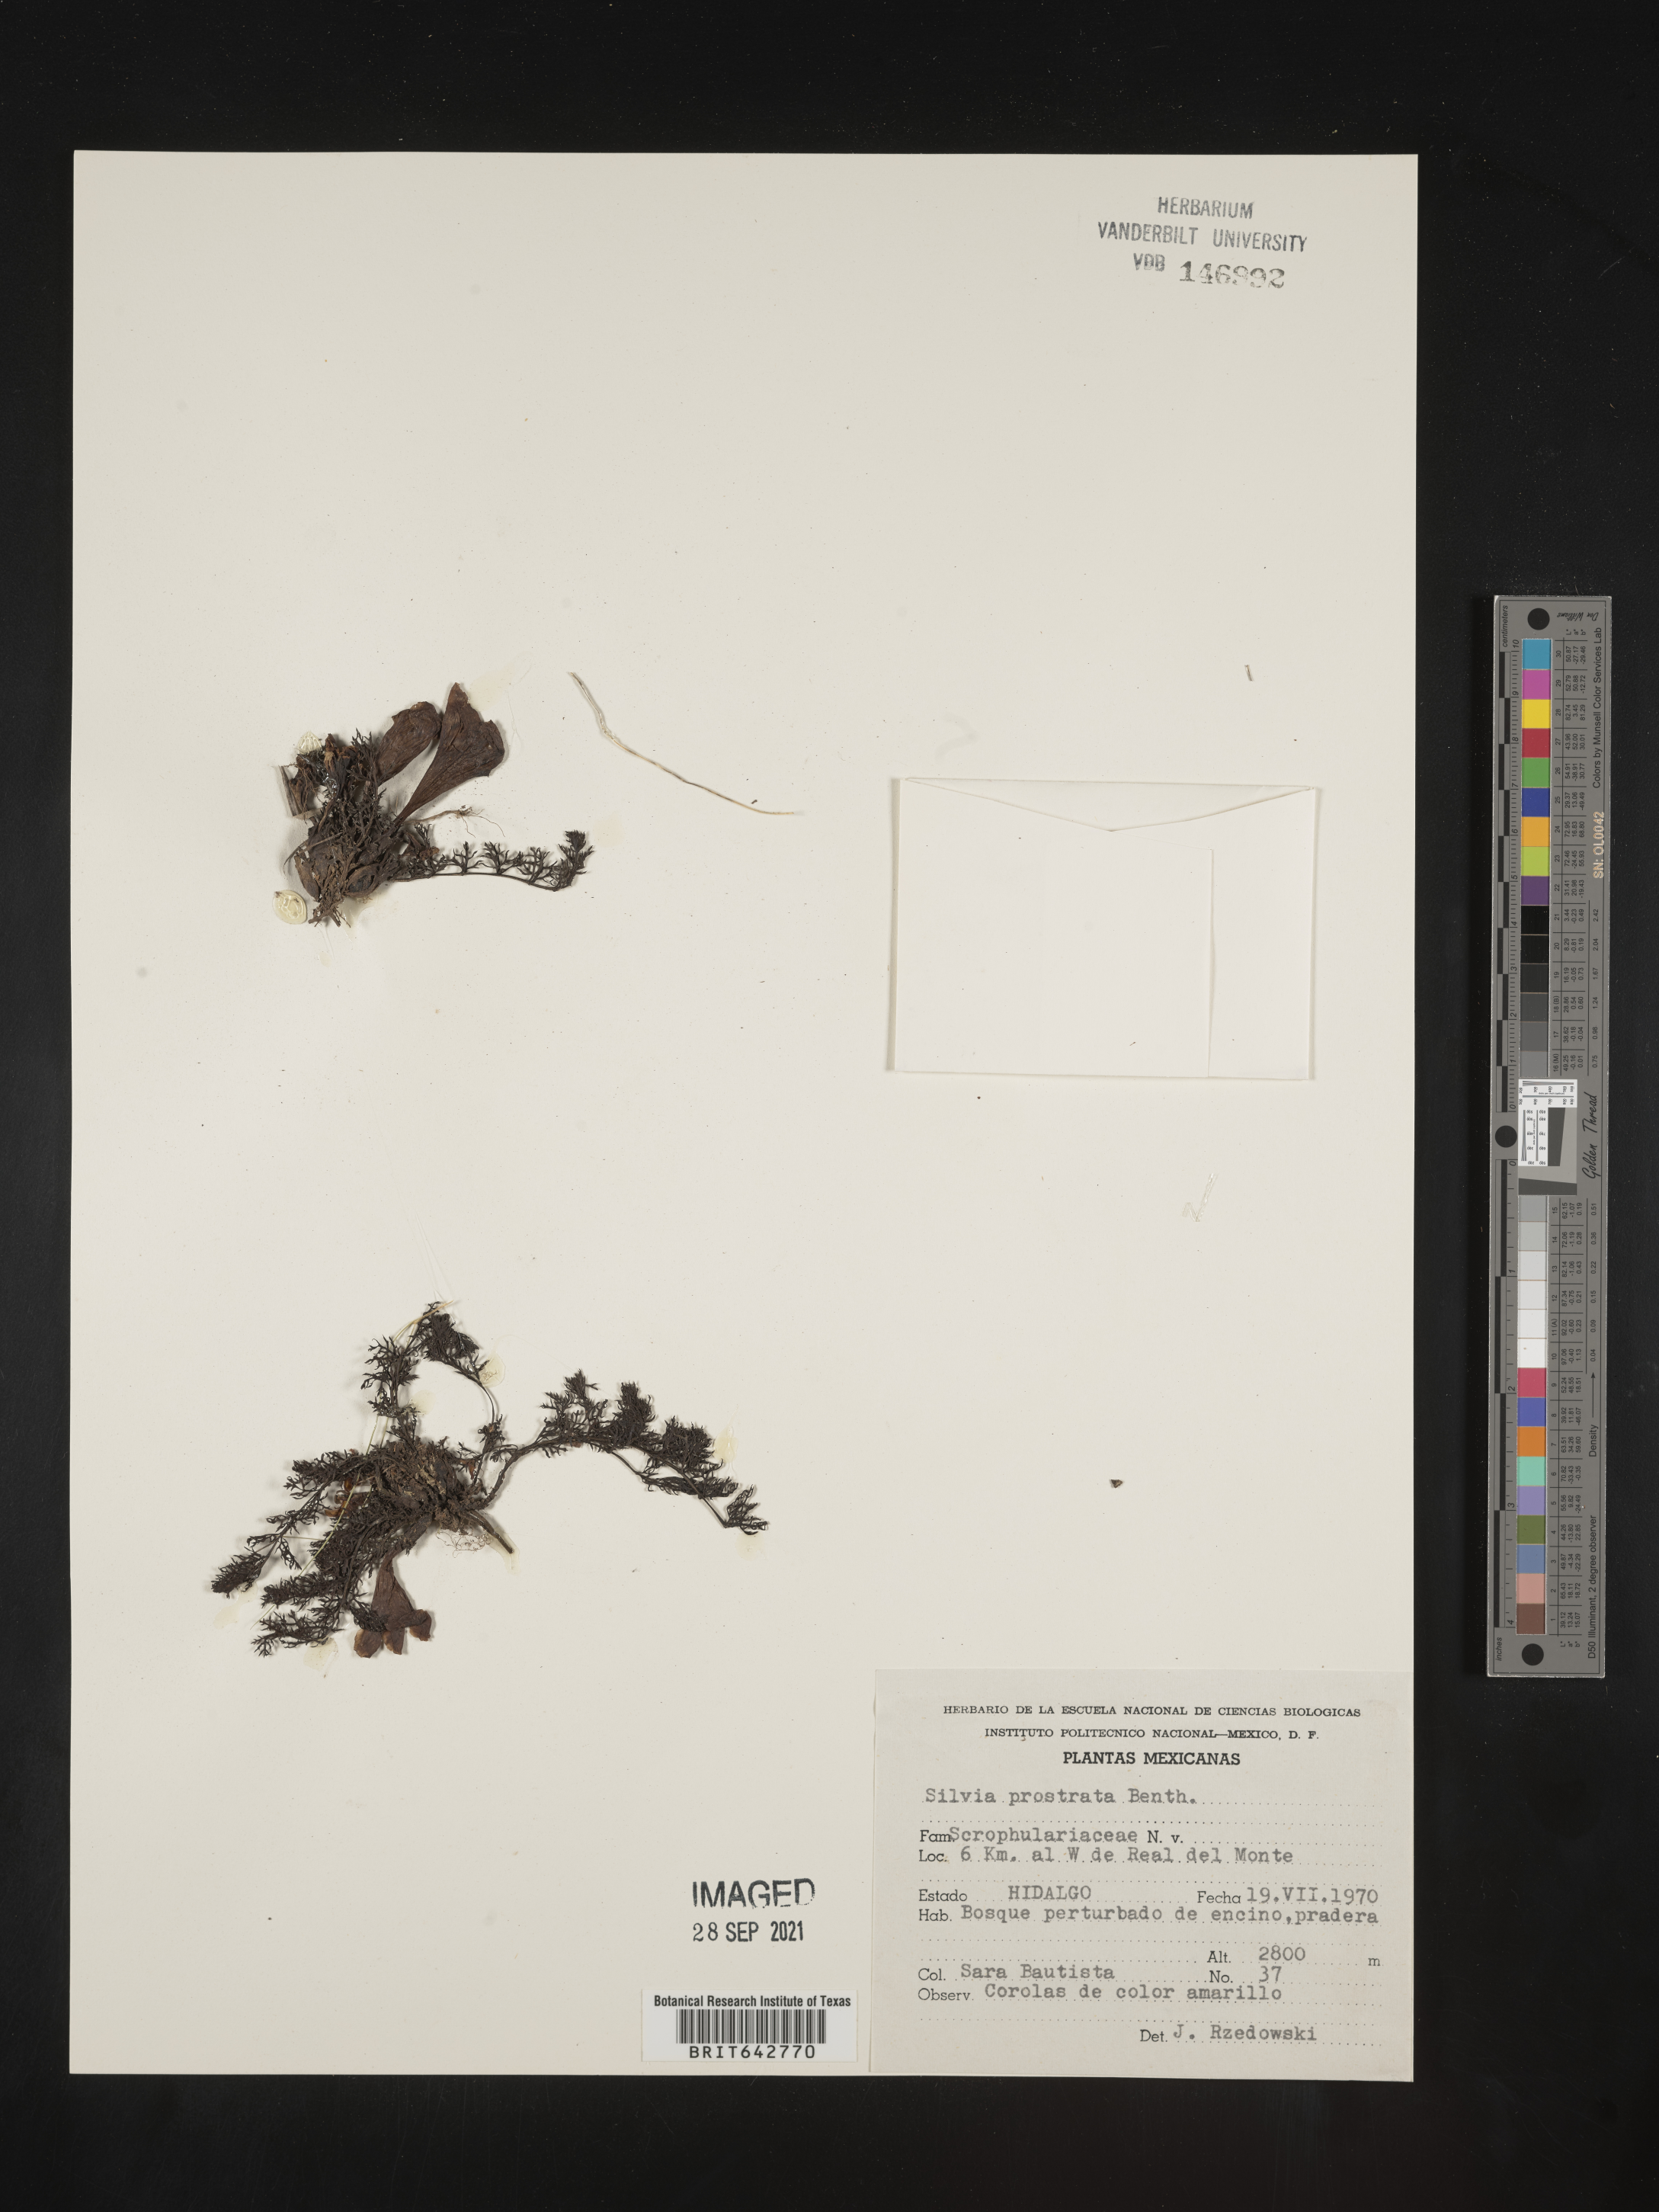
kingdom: Plantae
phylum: Tracheophyta
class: Magnoliopsida
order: Lamiales
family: Orobanchaceae
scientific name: Orobanchaceae
